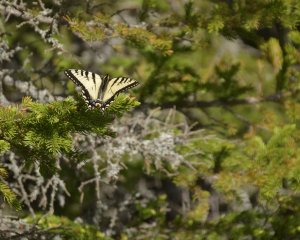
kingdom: Animalia
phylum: Arthropoda
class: Insecta
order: Lepidoptera
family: Papilionidae
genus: Pterourus
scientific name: Pterourus canadensis
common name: Canadian Tiger Swallowtail
